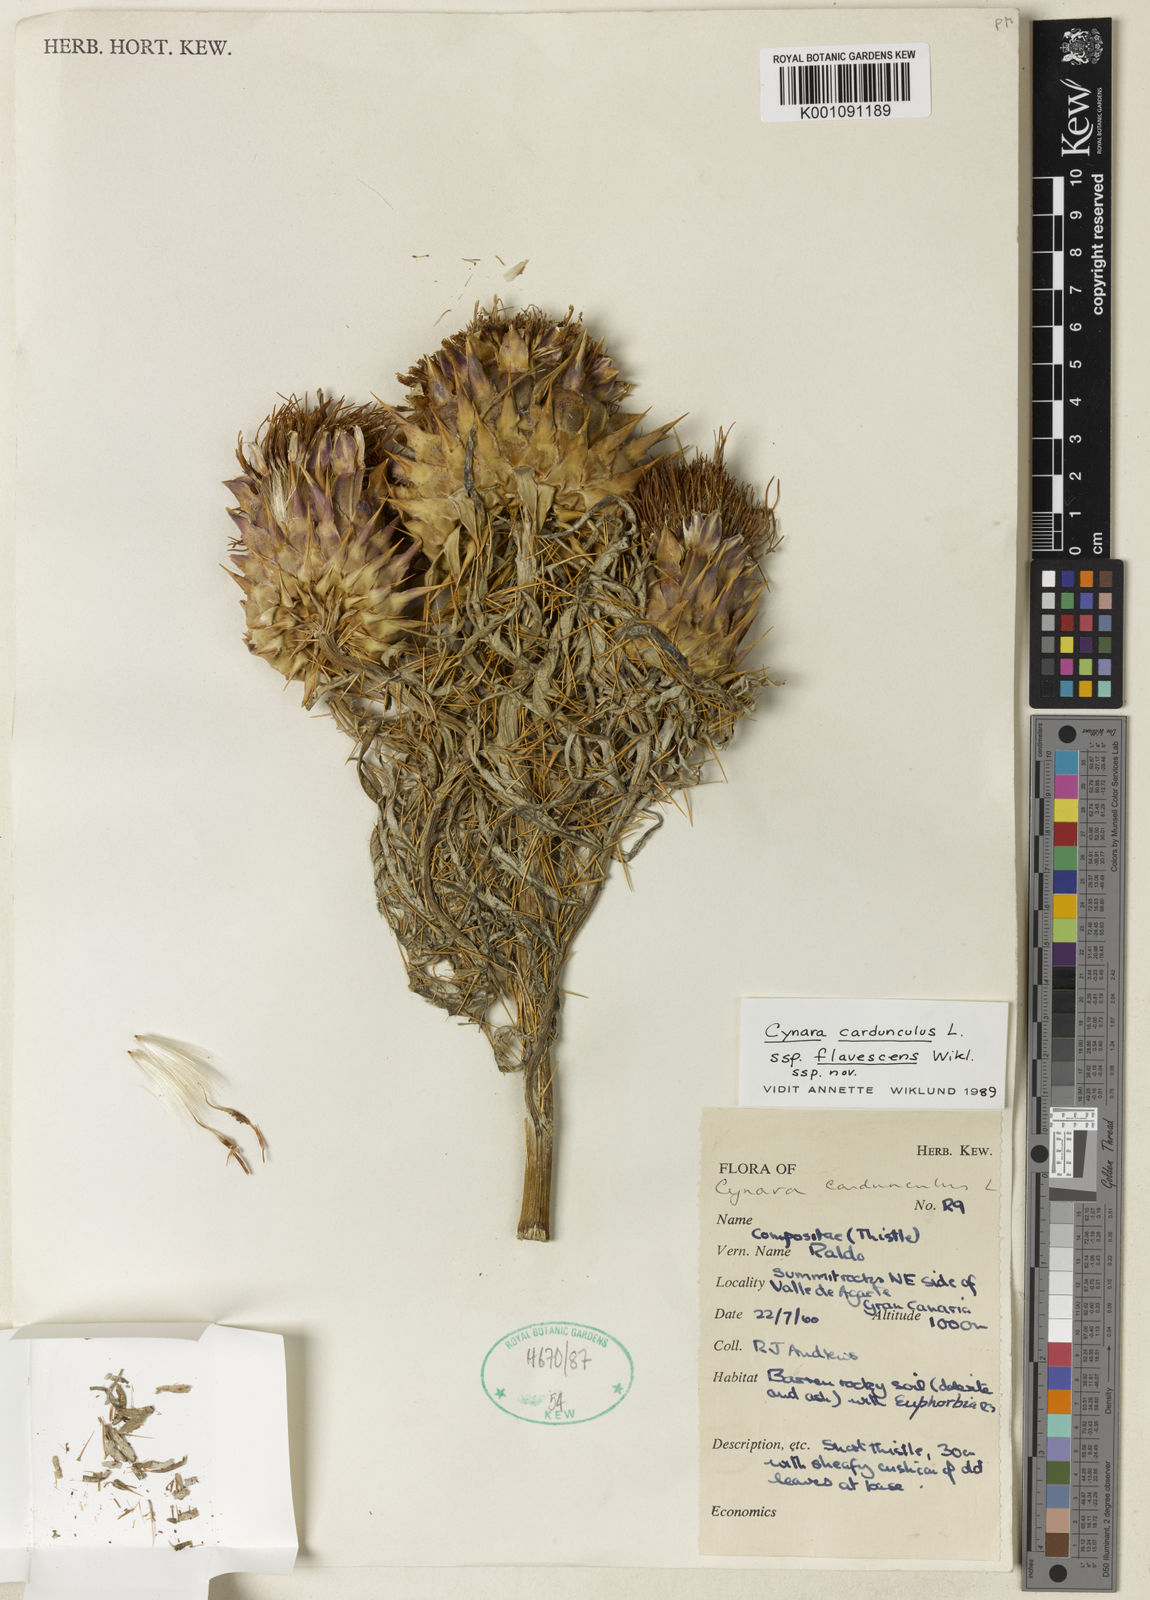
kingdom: Plantae
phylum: Tracheophyta
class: Magnoliopsida
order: Asterales
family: Asteraceae
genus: Cynara
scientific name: Cynara cardunculus
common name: Globe artichoke
